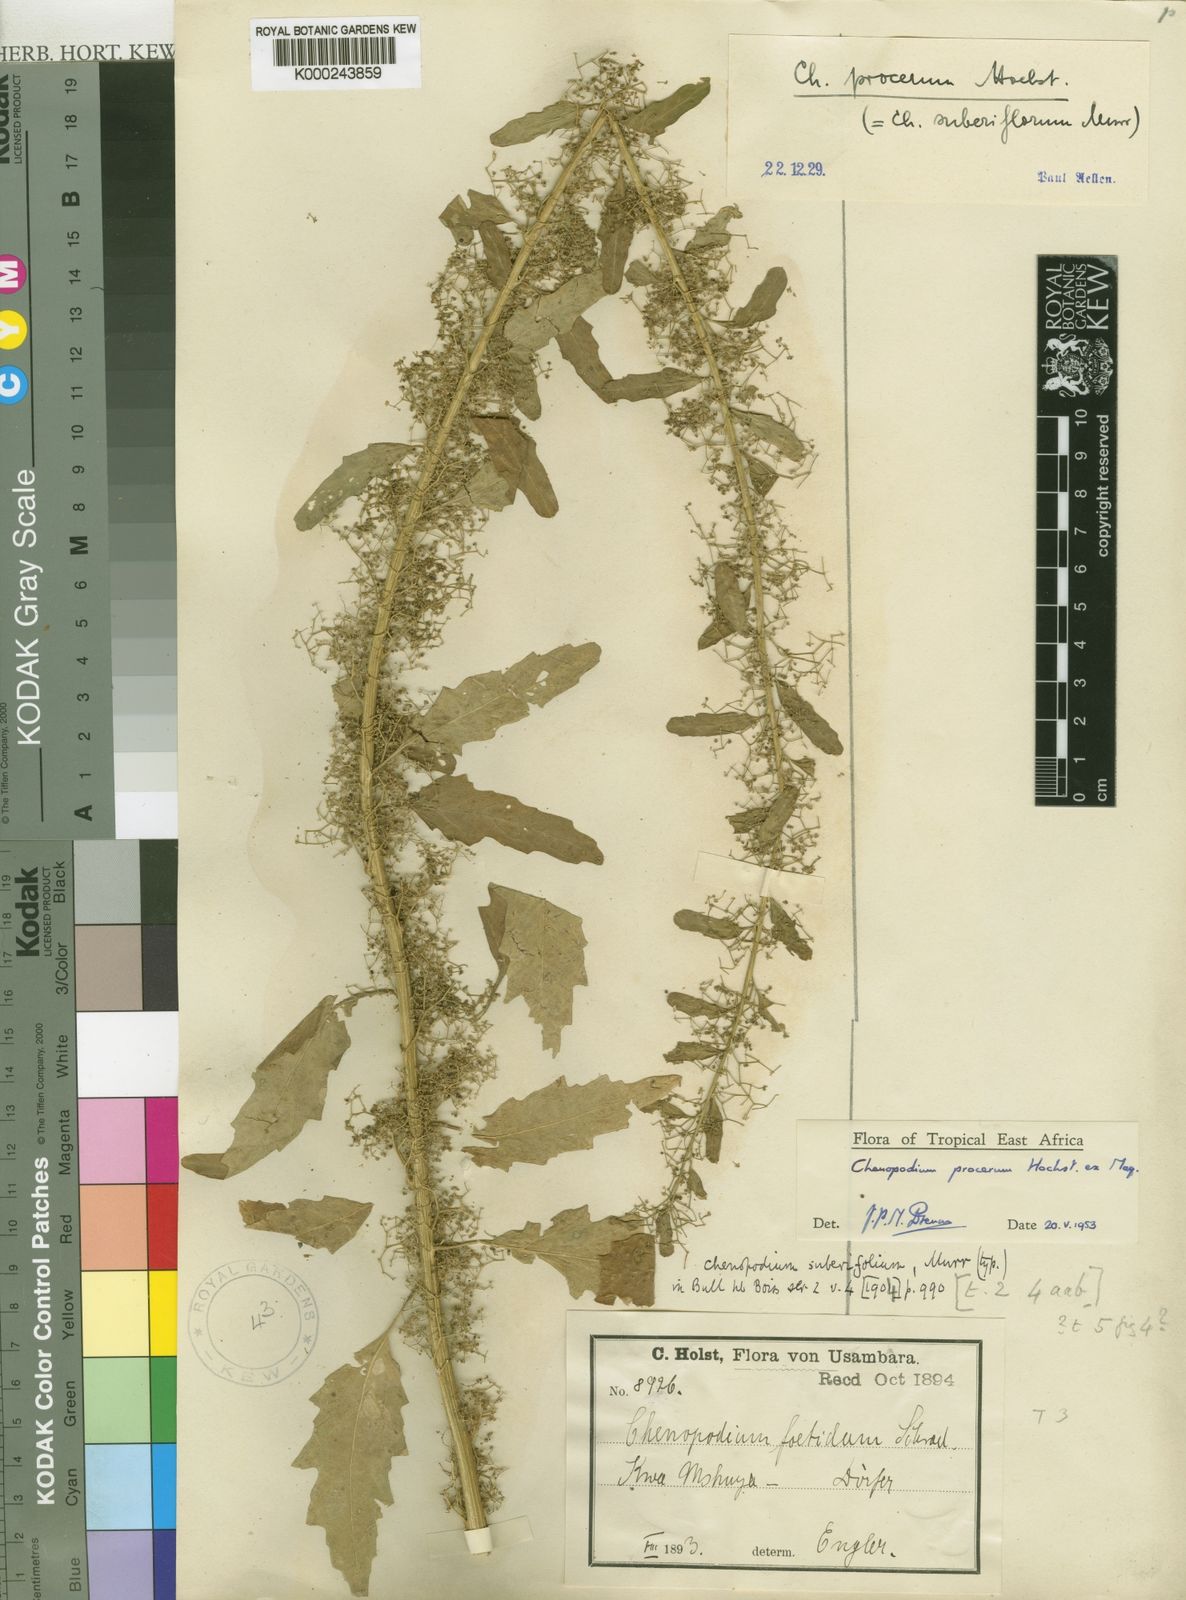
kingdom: Plantae
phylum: Tracheophyta
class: Magnoliopsida
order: Caryophyllales
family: Amaranthaceae
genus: Dysphania
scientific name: Dysphania procera
